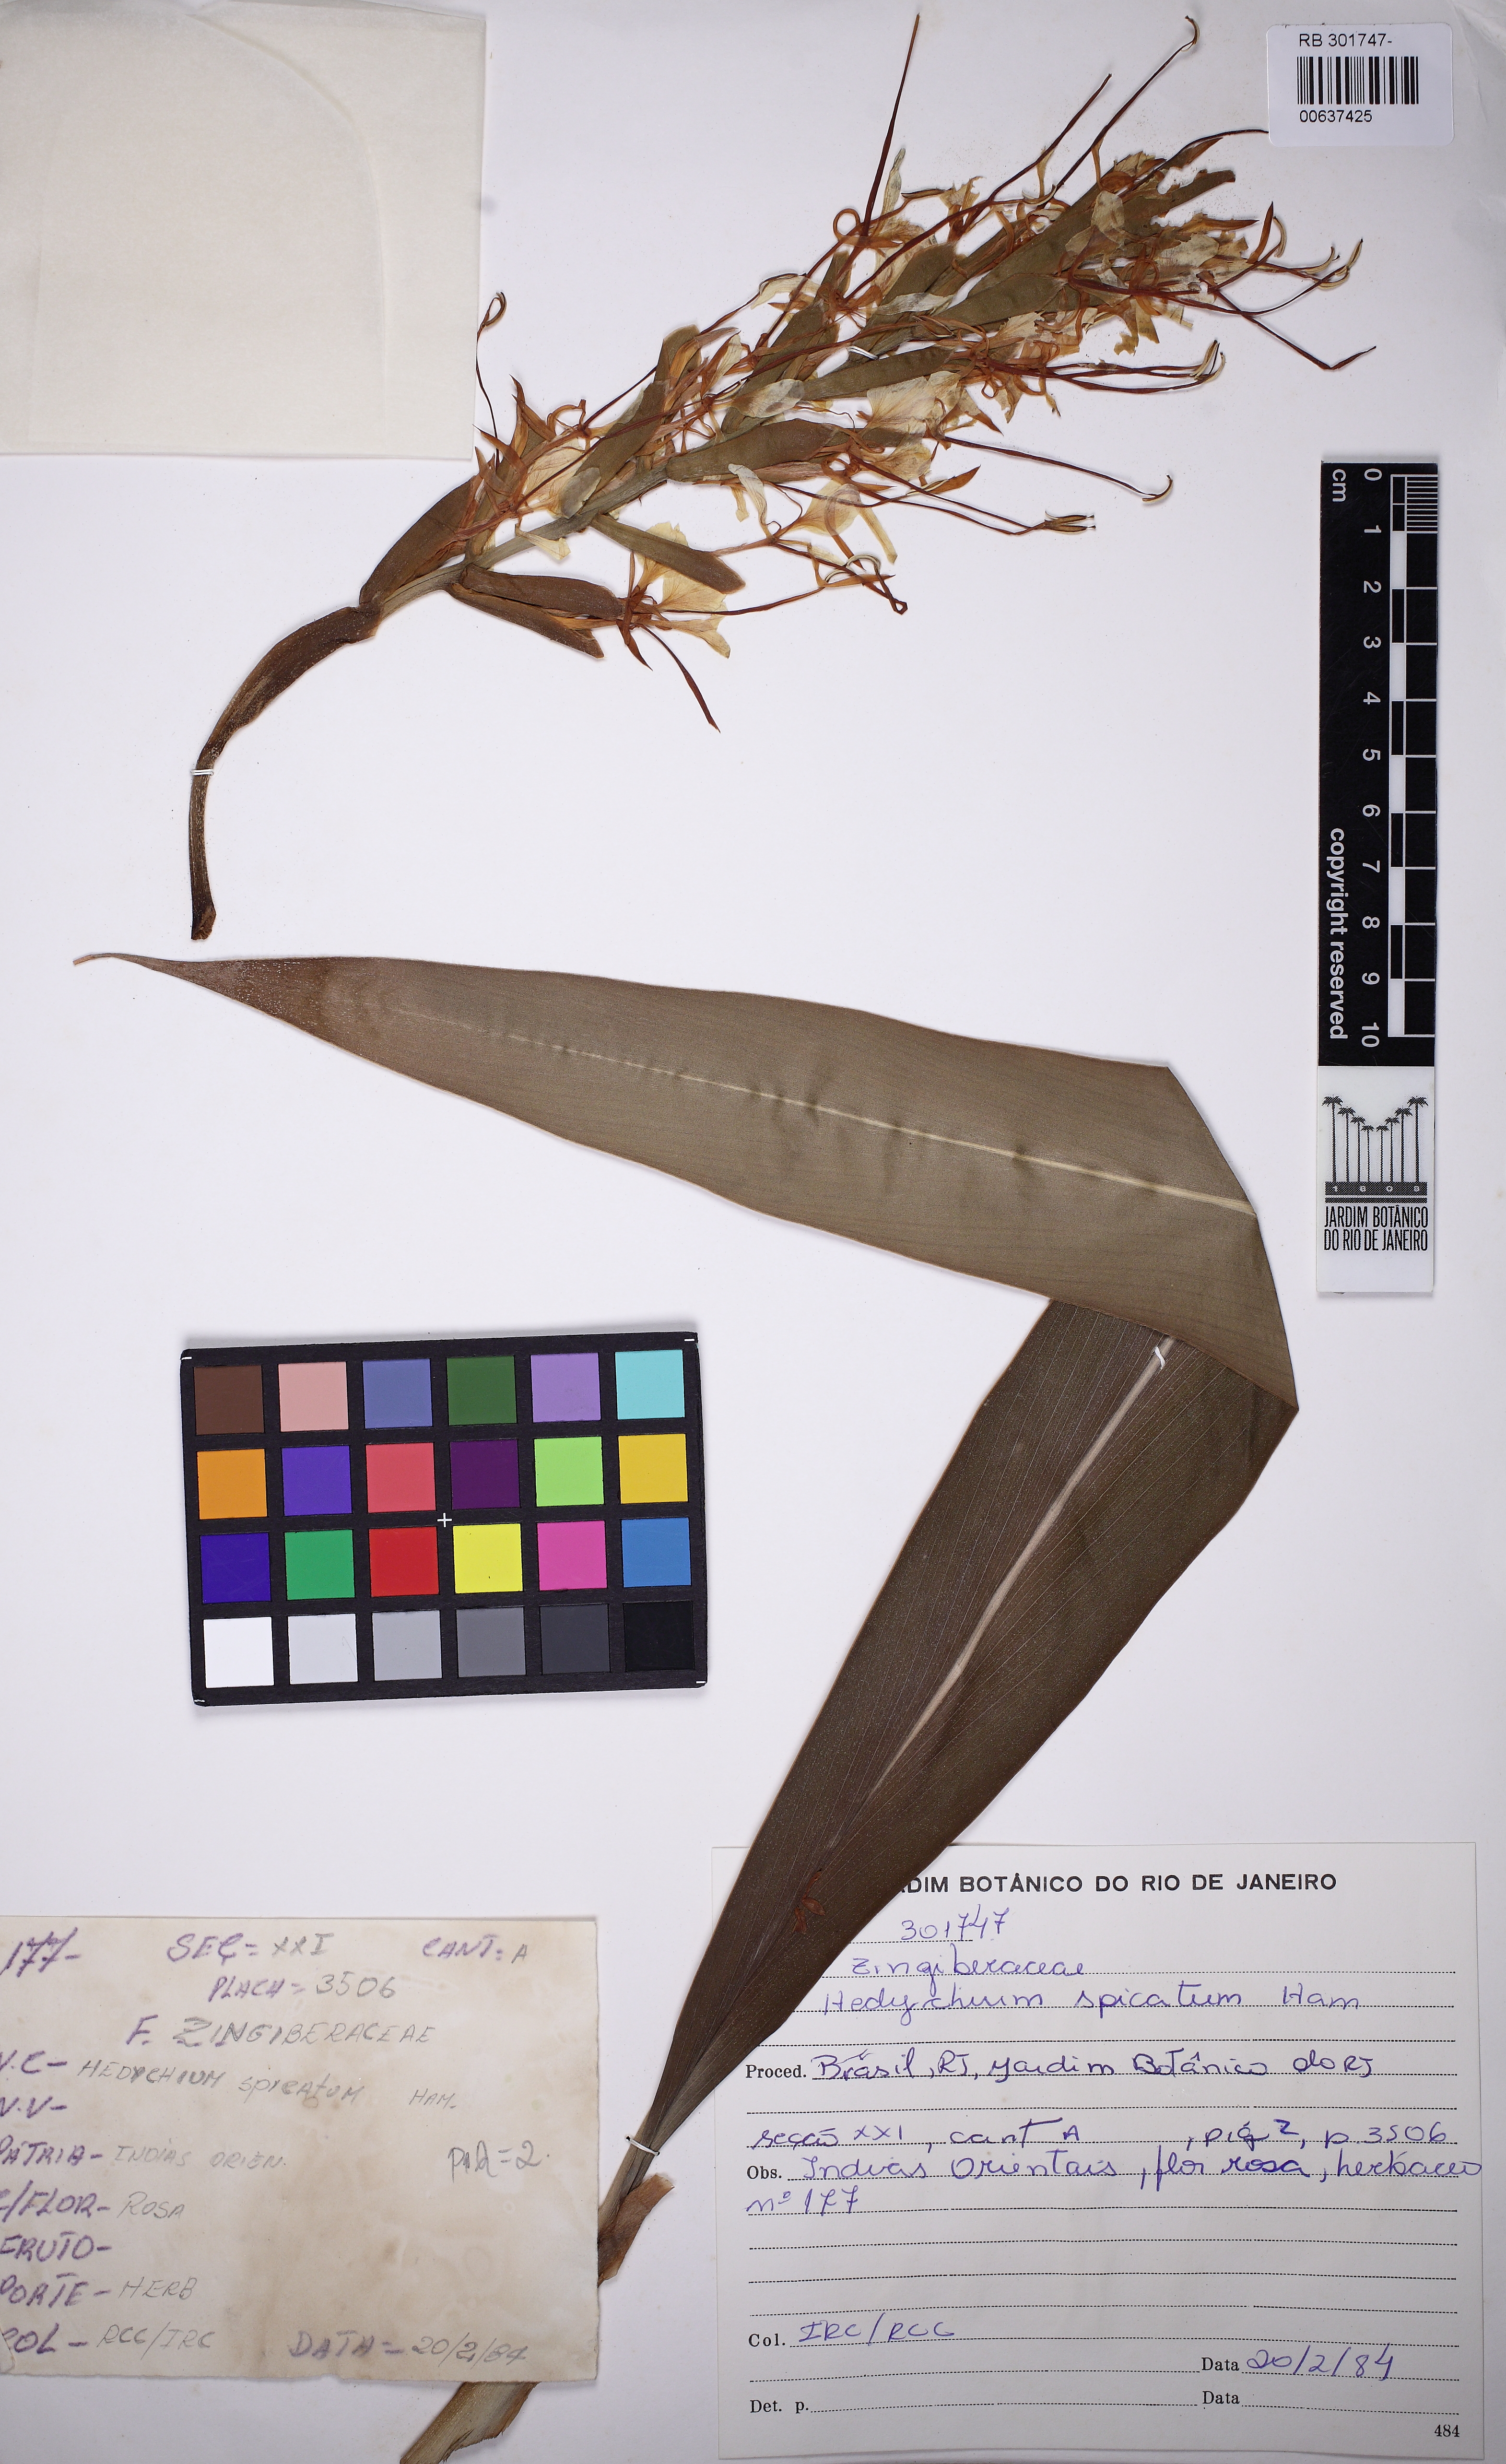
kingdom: Plantae
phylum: Tracheophyta
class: Liliopsida
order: Zingiberales
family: Zingiberaceae
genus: Hedychium
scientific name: Hedychium spicatum
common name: Spiked ginger-lily
